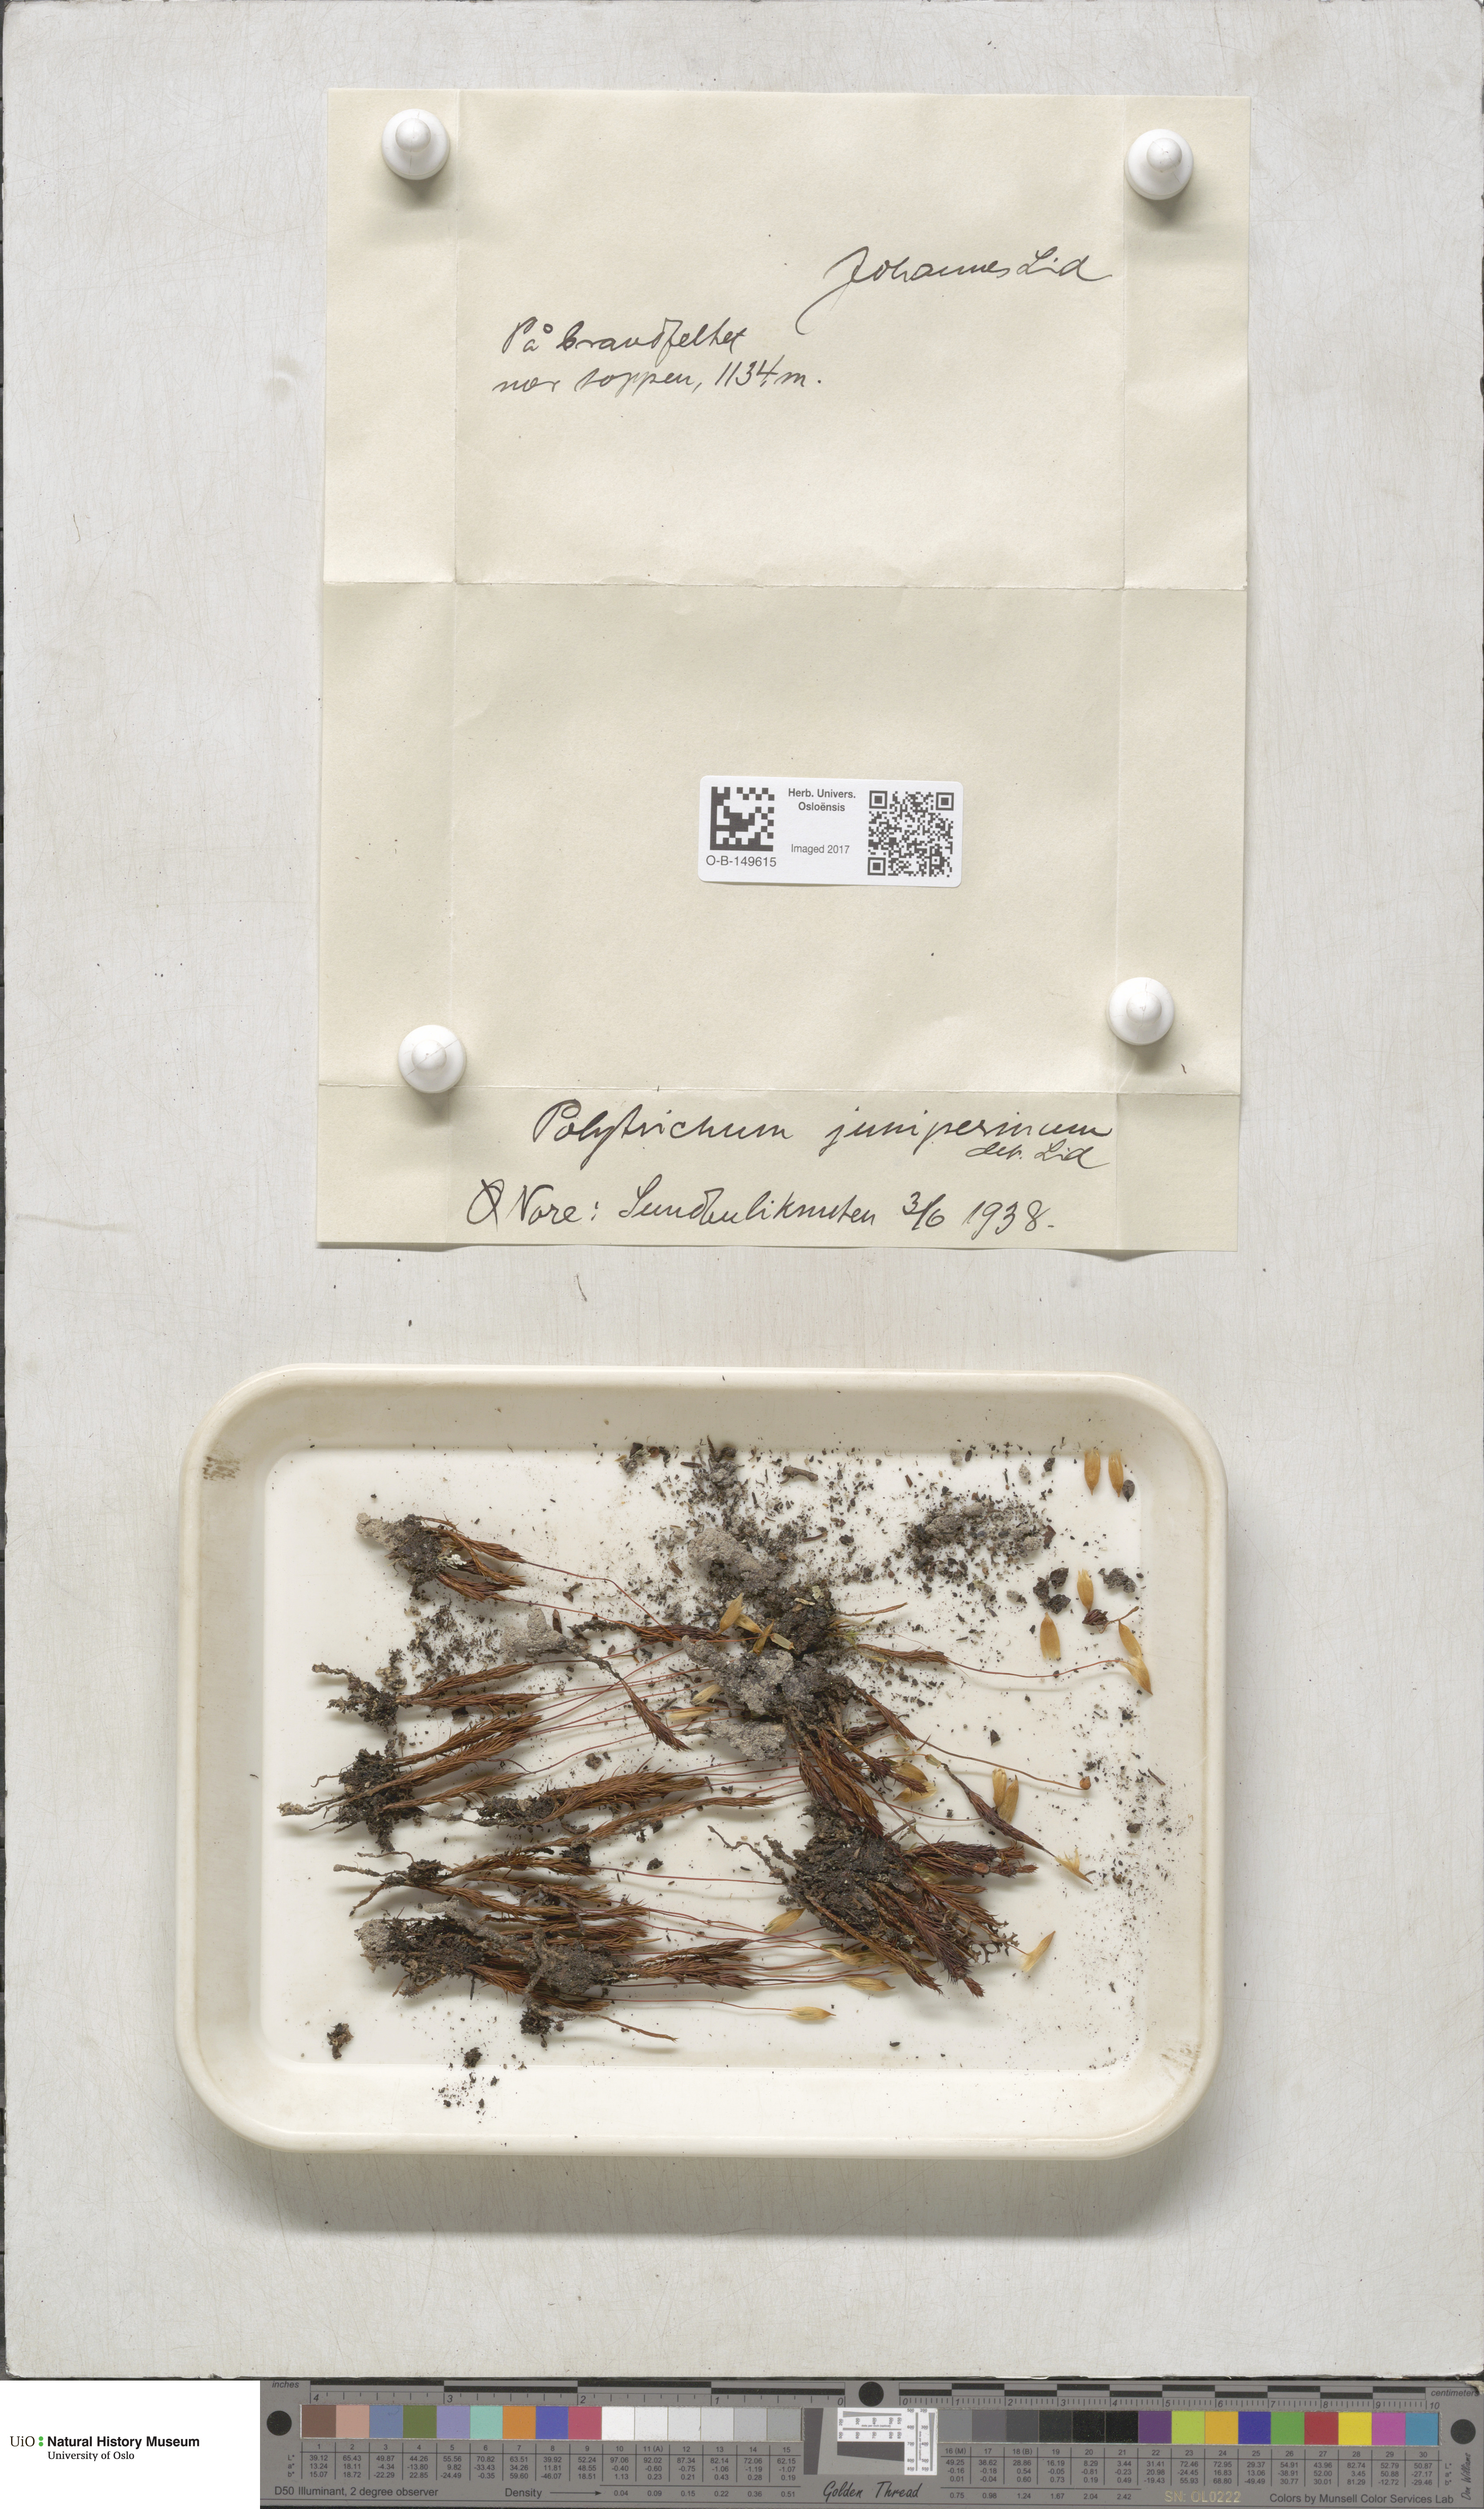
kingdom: Plantae
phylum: Bryophyta
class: Polytrichopsida
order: Polytrichales
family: Polytrichaceae
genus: Polytrichum
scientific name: Polytrichum juniperinum
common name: Juniper haircap moss
